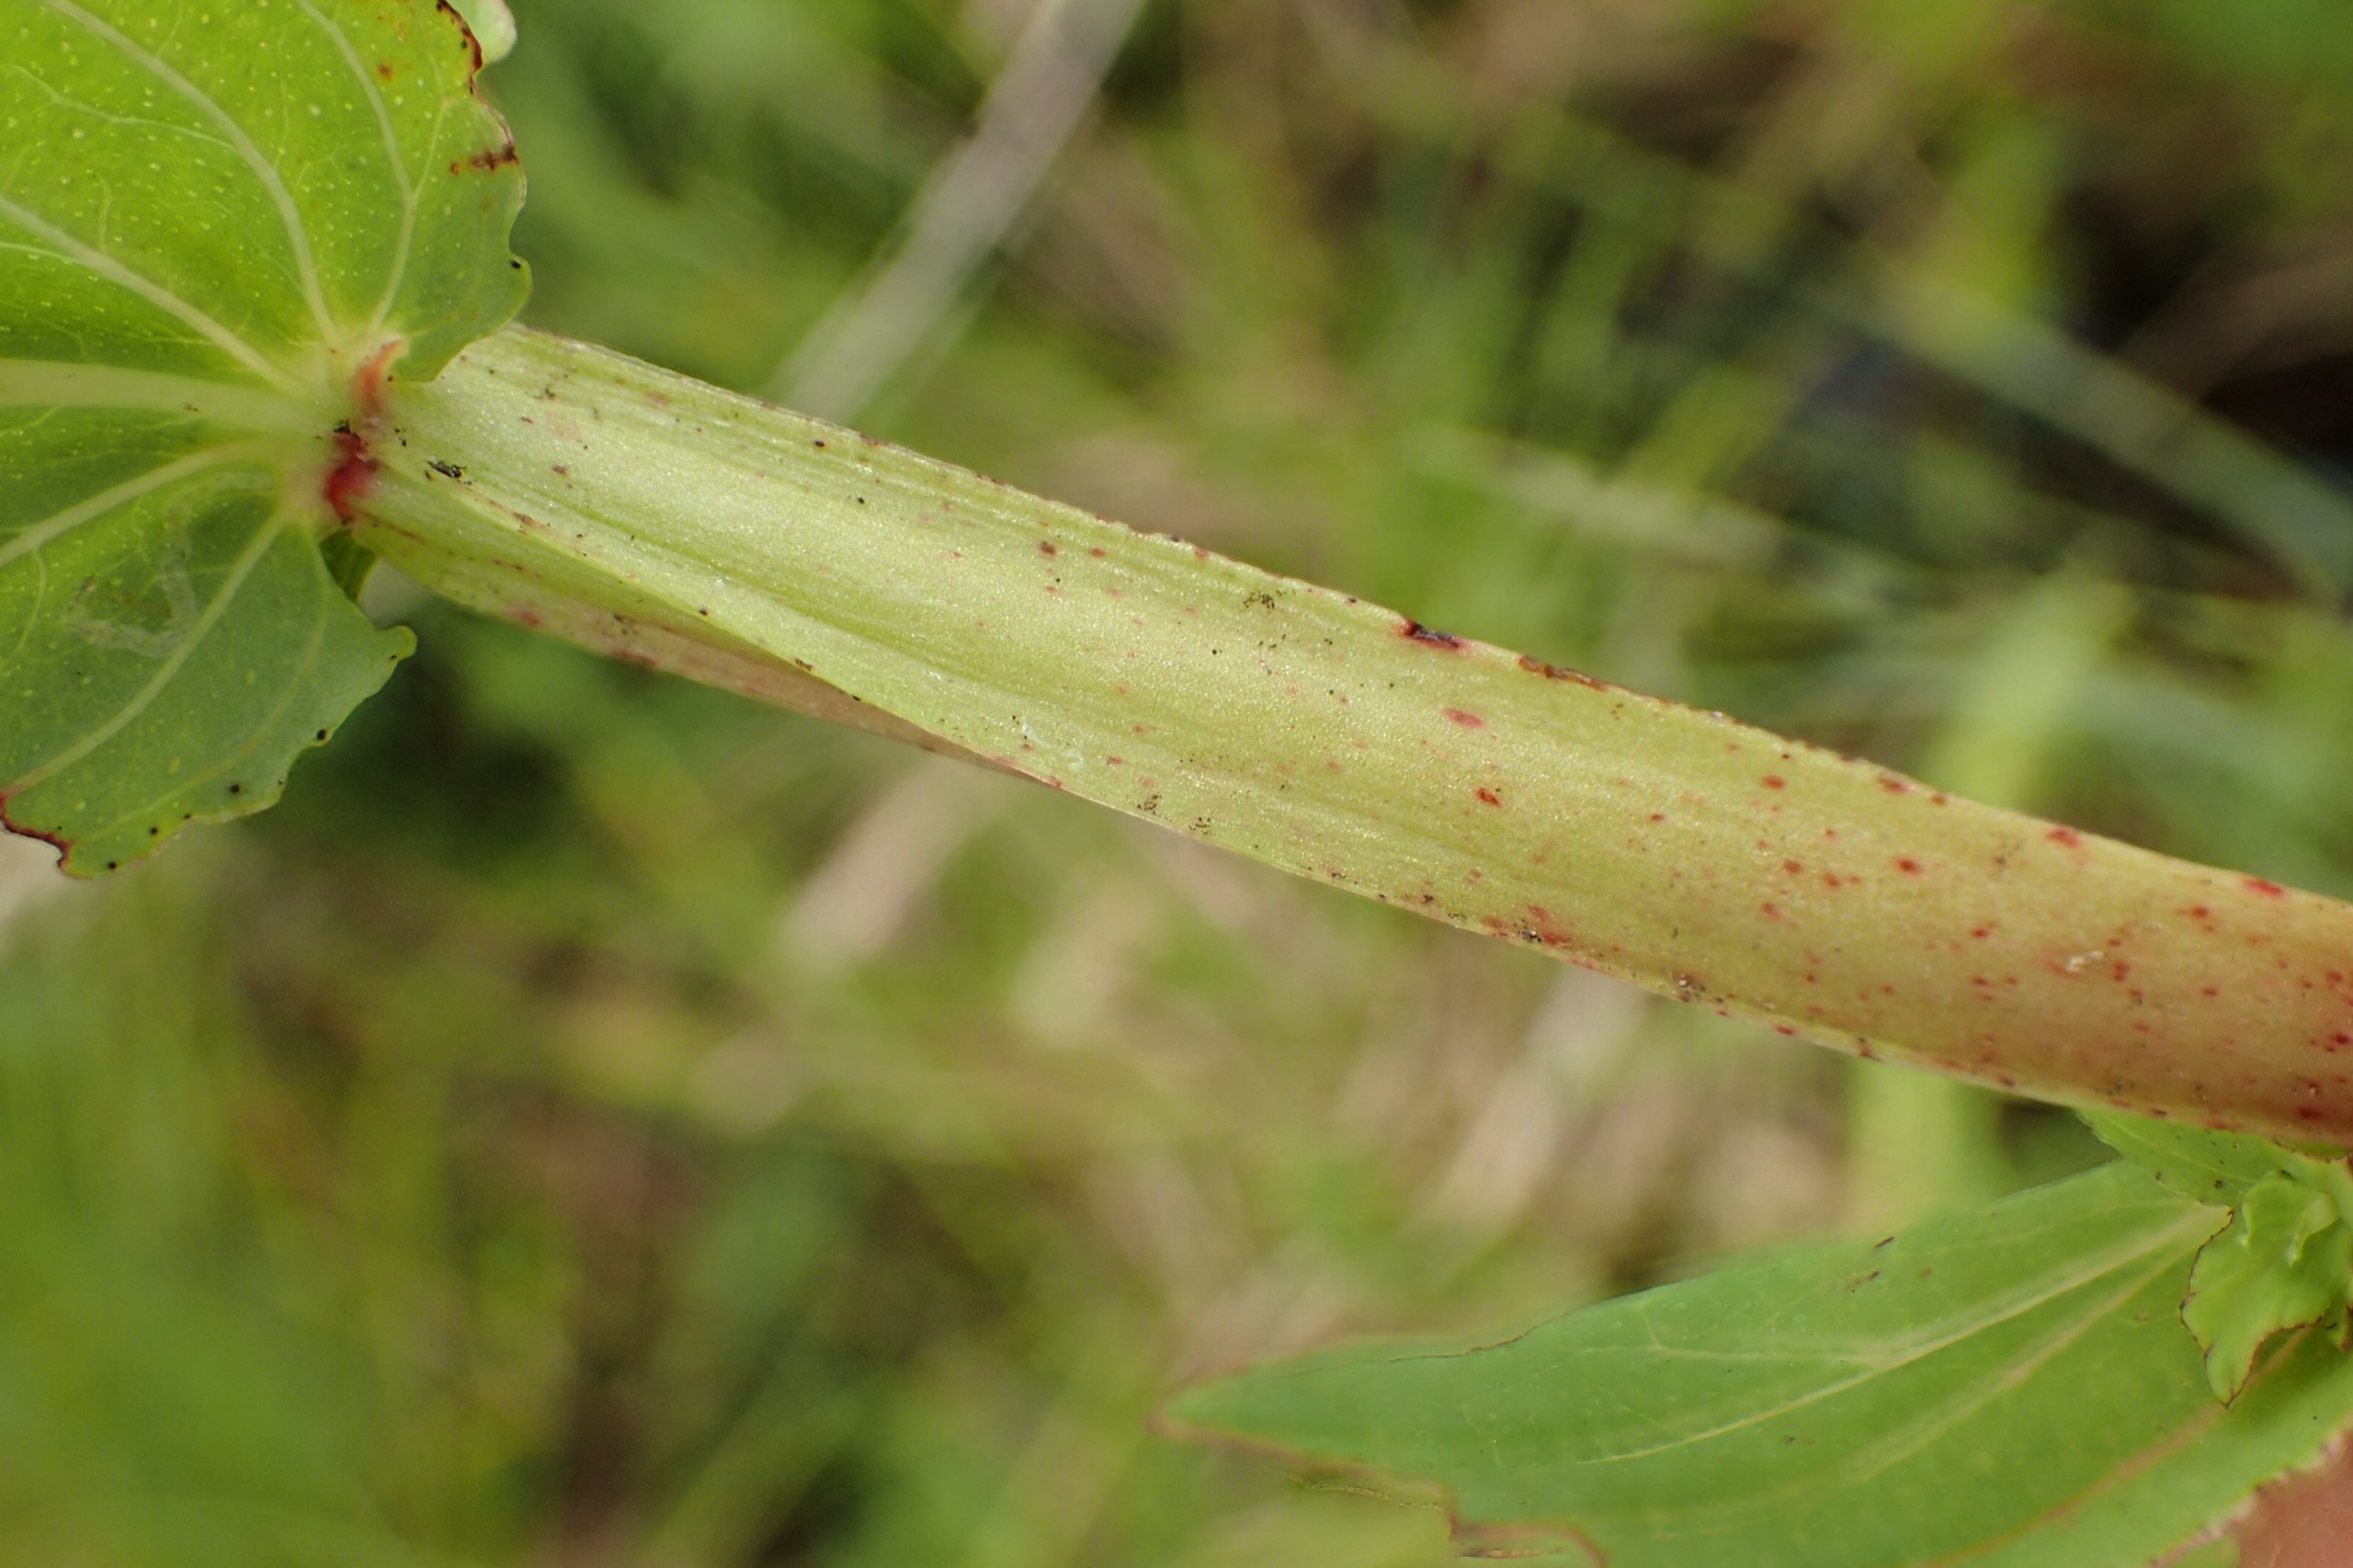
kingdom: Plantae
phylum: Tracheophyta
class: Magnoliopsida
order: Malpighiales
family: Hypericaceae
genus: Hypericum
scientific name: Hypericum tetrapterum
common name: Vinget perikon
